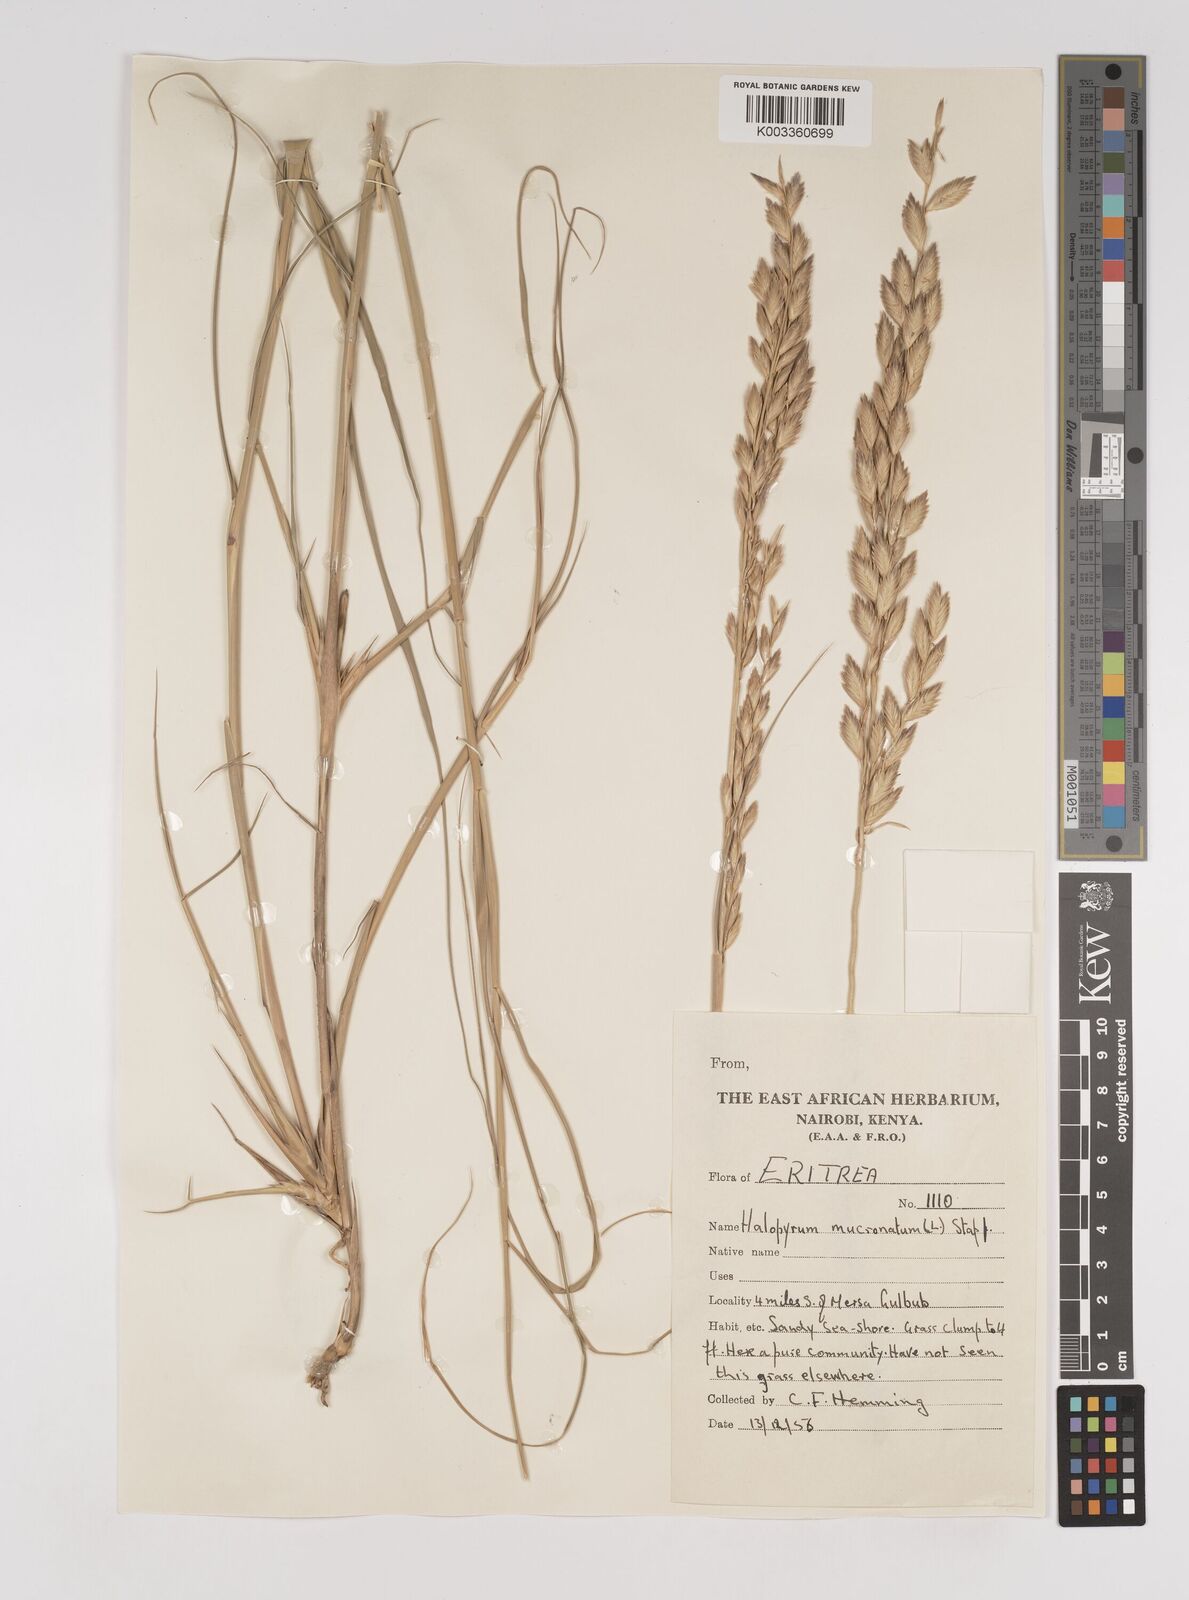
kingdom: Plantae
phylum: Tracheophyta
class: Liliopsida
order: Poales
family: Poaceae
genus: Halopyrum
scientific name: Halopyrum mucronatum
